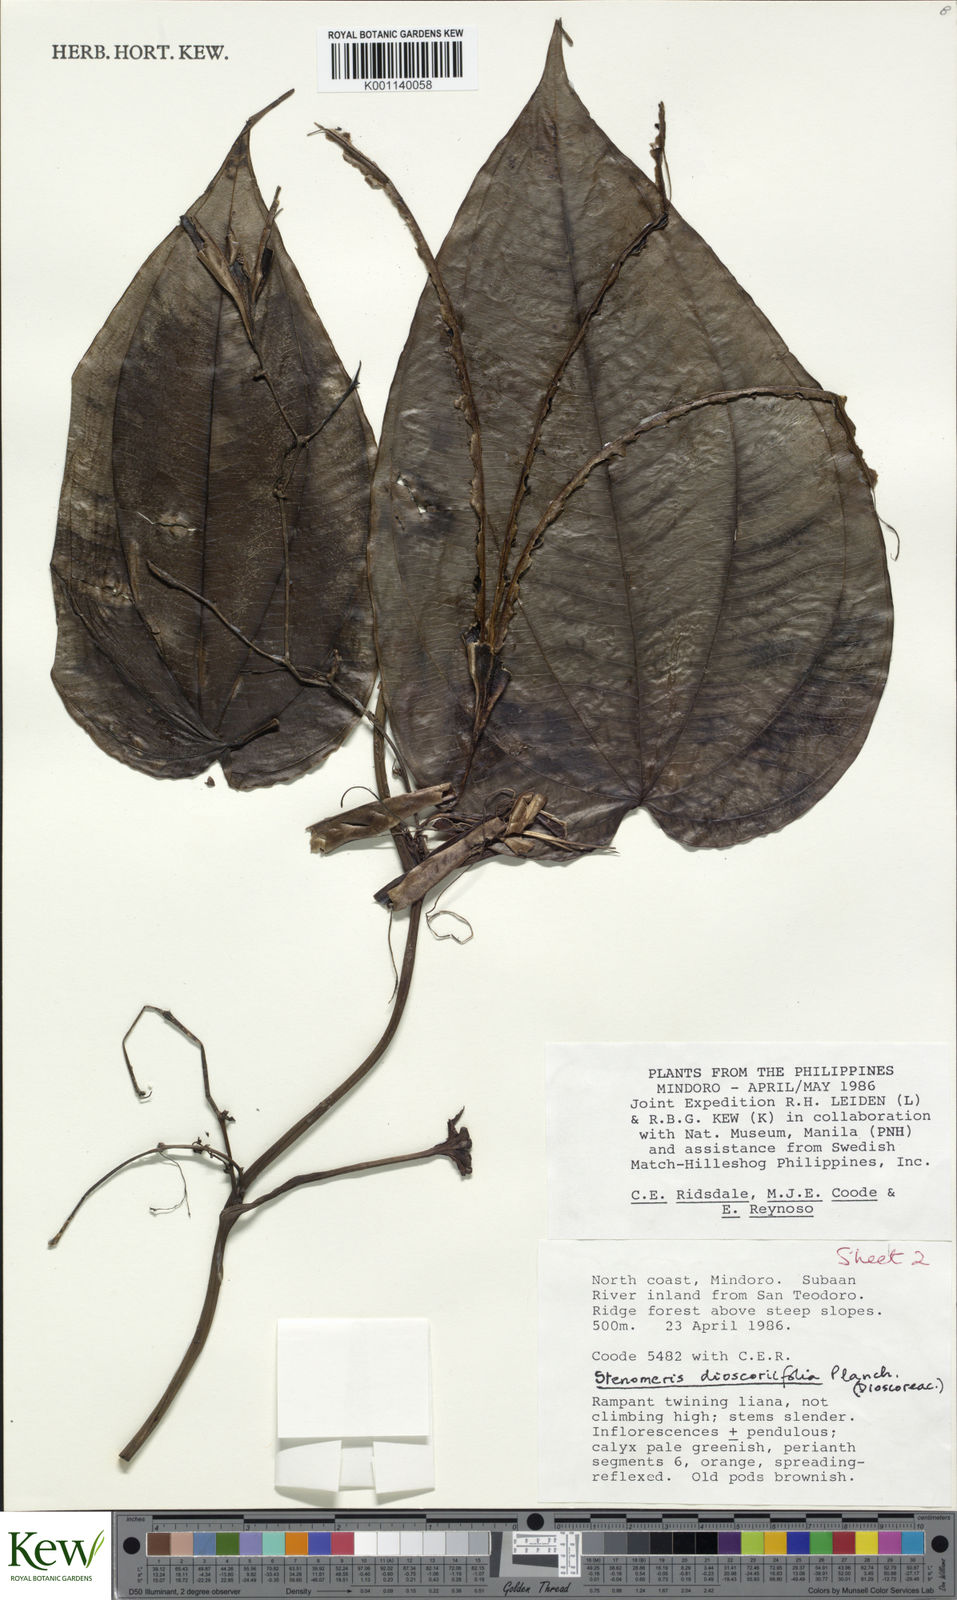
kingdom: Plantae
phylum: Tracheophyta
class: Liliopsida
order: Dioscoreales
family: Dioscoreaceae
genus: Stenomeris
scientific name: Stenomeris dioscoreifolia
